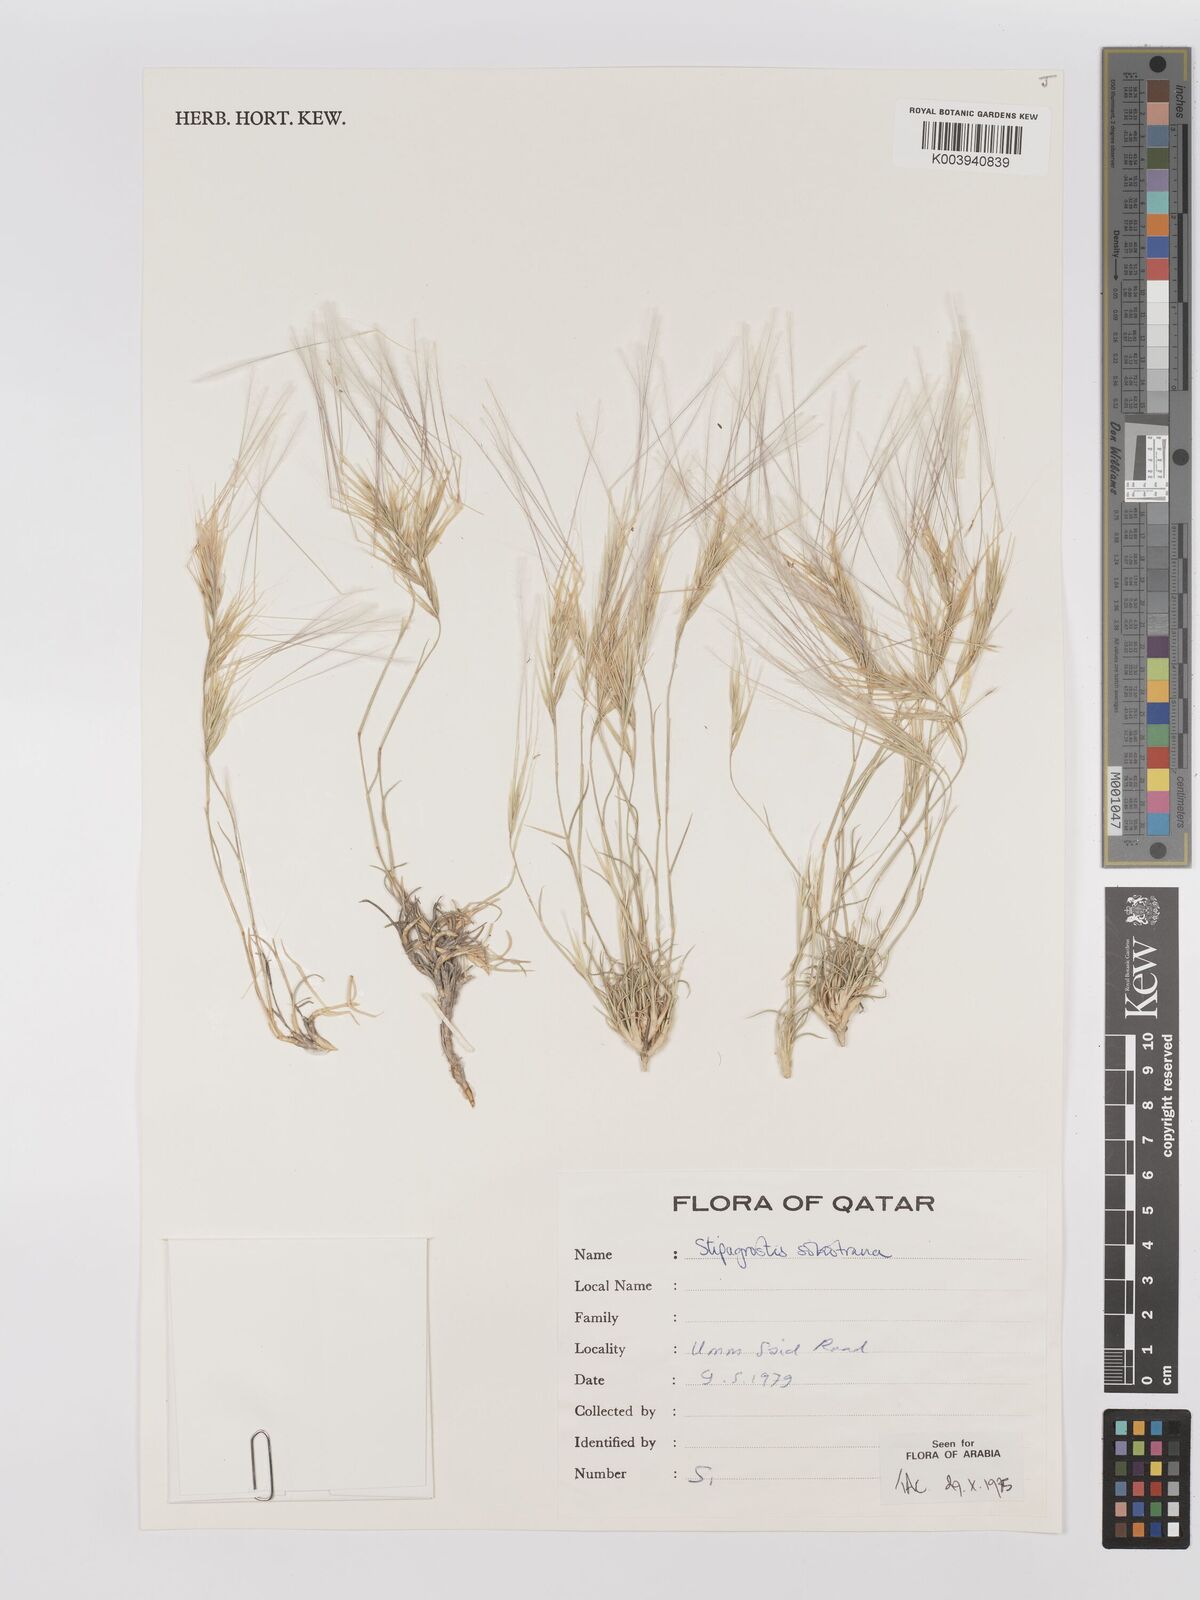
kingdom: Plantae
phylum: Tracheophyta
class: Liliopsida
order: Poales
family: Poaceae
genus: Stipagrostis
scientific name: Stipagrostis sokotrana
